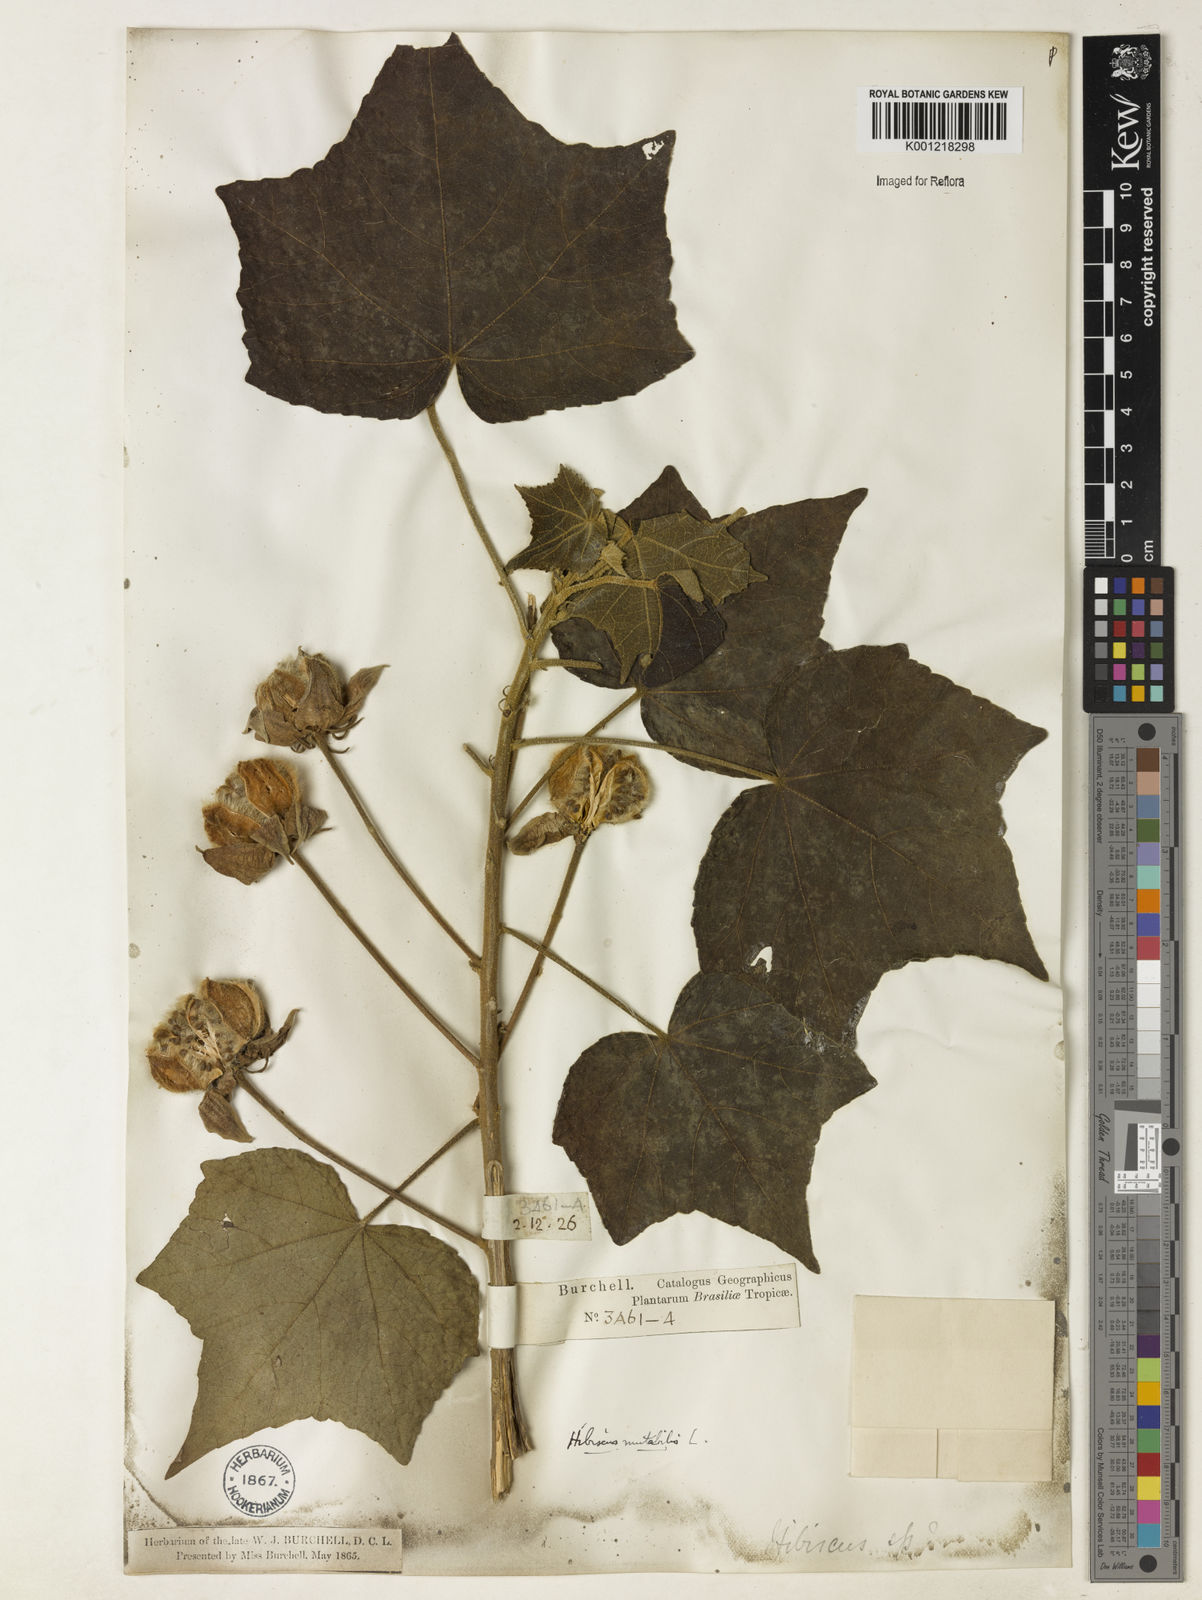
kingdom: Plantae
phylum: Tracheophyta
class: Magnoliopsida
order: Malvales
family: Malvaceae
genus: Hibiscus
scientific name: Hibiscus mutabilis
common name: Dixie rosemallow
